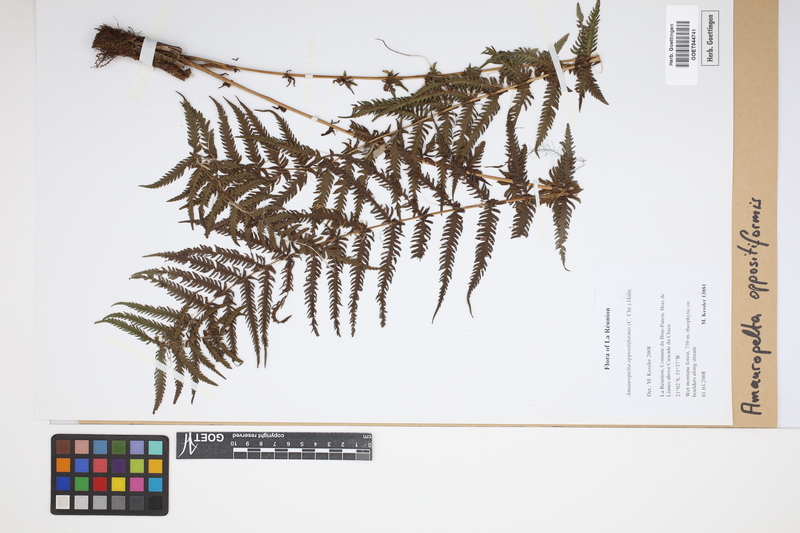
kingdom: Plantae
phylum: Tracheophyta
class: Polypodiopsida
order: Polypodiales
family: Thelypteridaceae
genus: Amauropelta
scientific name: Amauropelta oppositiformis
